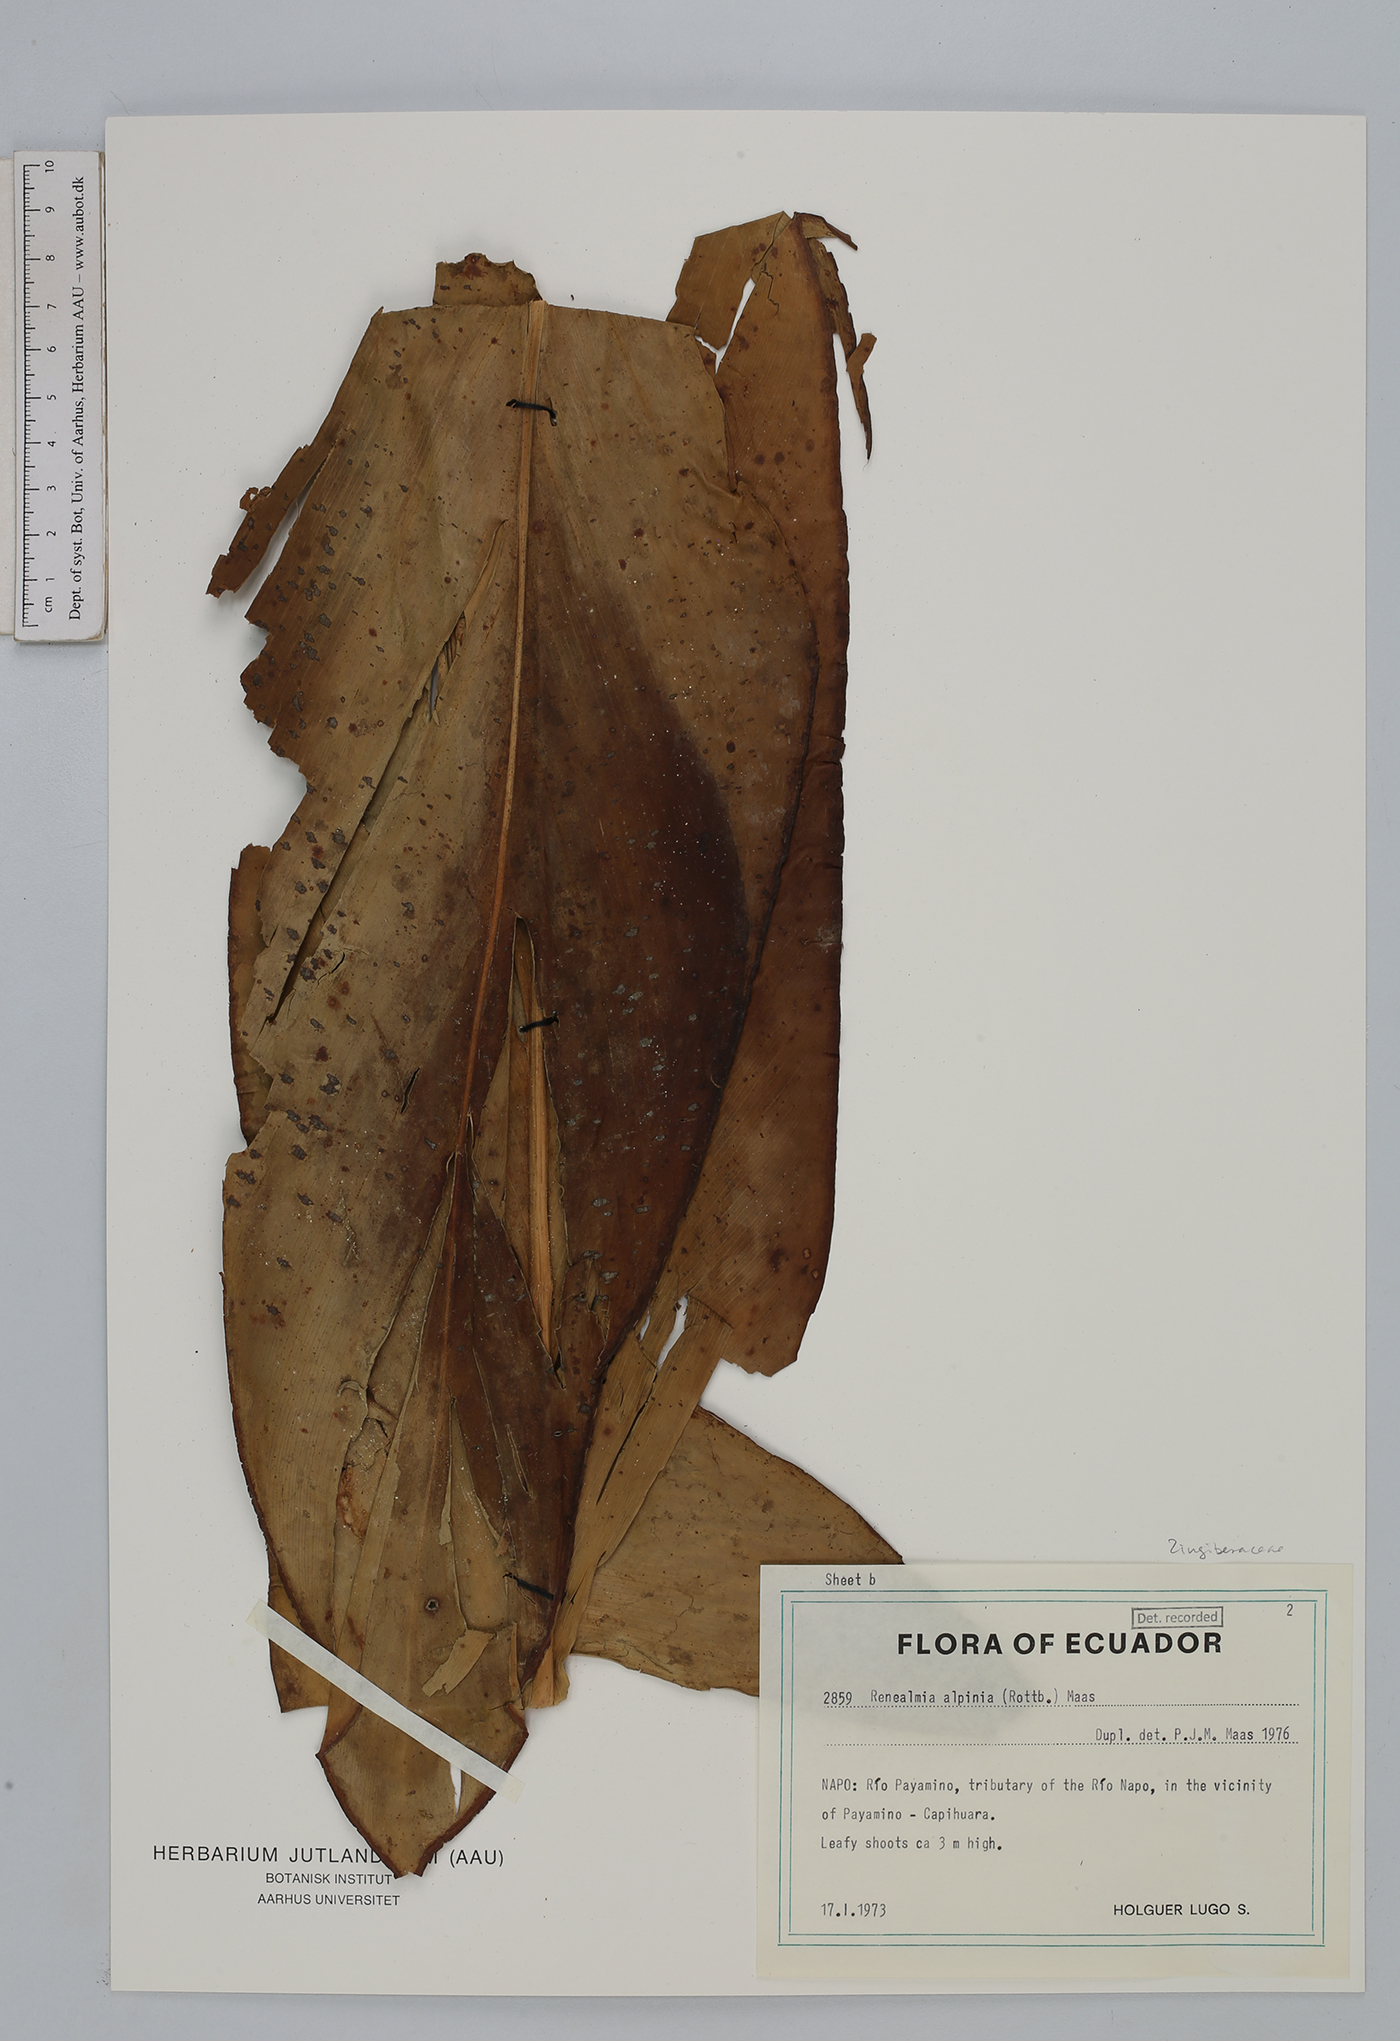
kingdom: Plantae
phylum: Tracheophyta
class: Liliopsida
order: Zingiberales
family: Zingiberaceae
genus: Renealmia
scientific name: Renealmia alpinia
